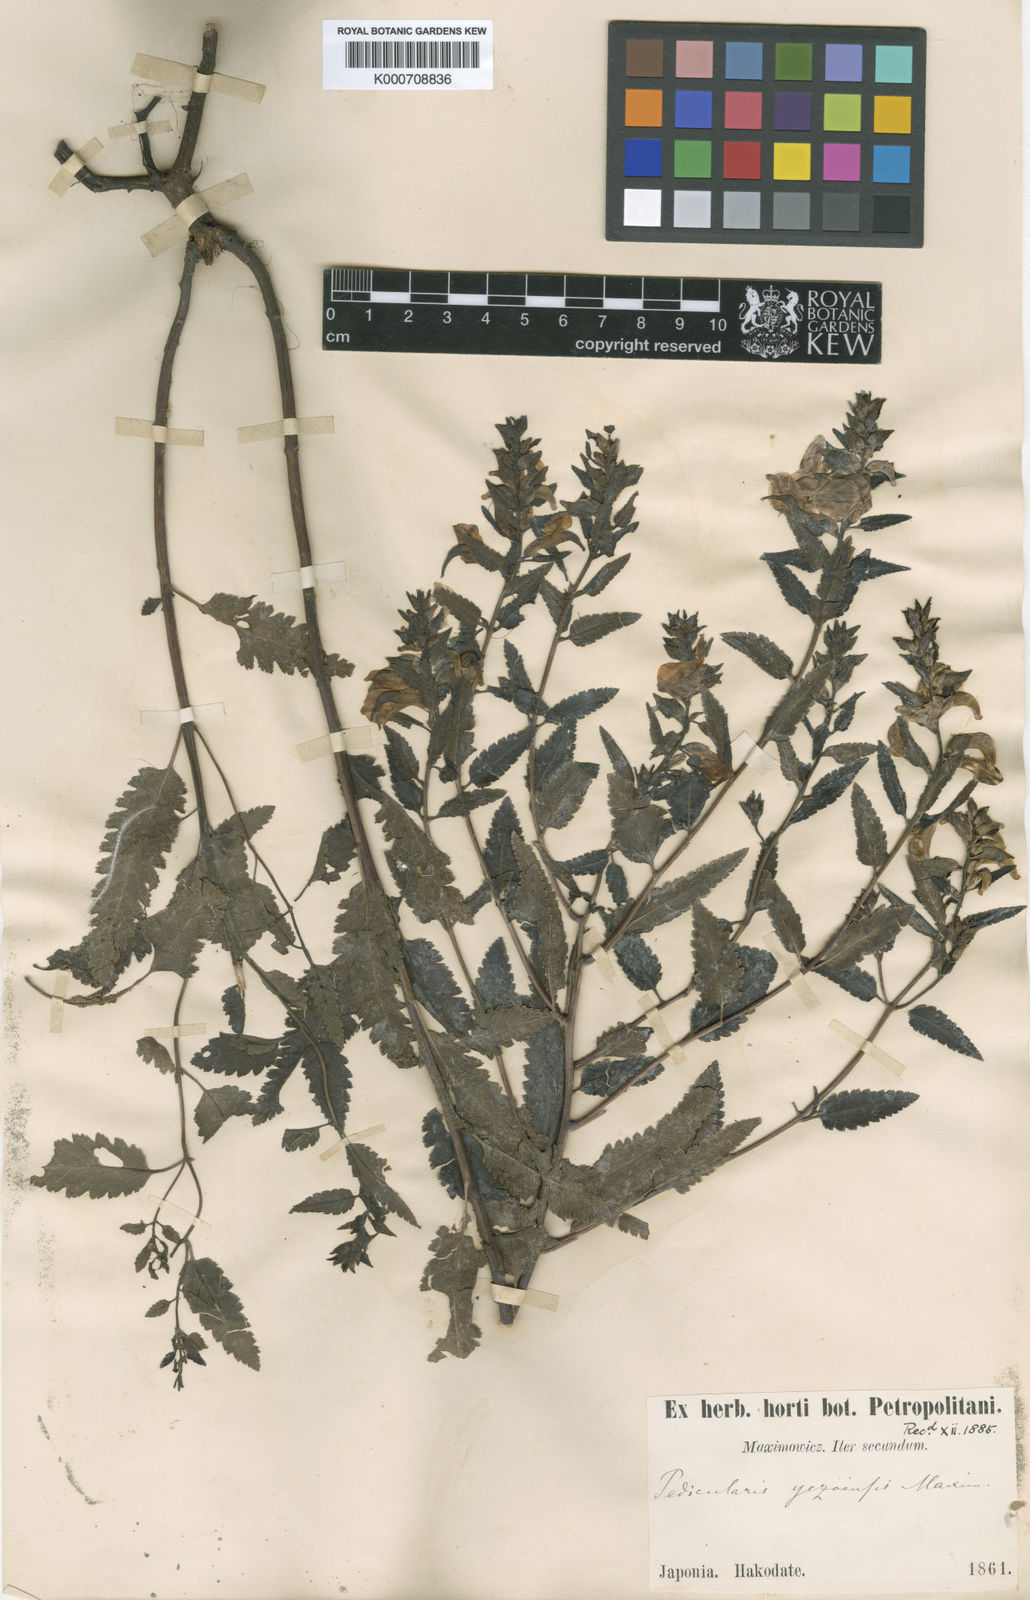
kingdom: Plantae
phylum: Tracheophyta
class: Magnoliopsida
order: Lamiales
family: Orobanchaceae
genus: Pedicularis
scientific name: Pedicularis yezoensis
